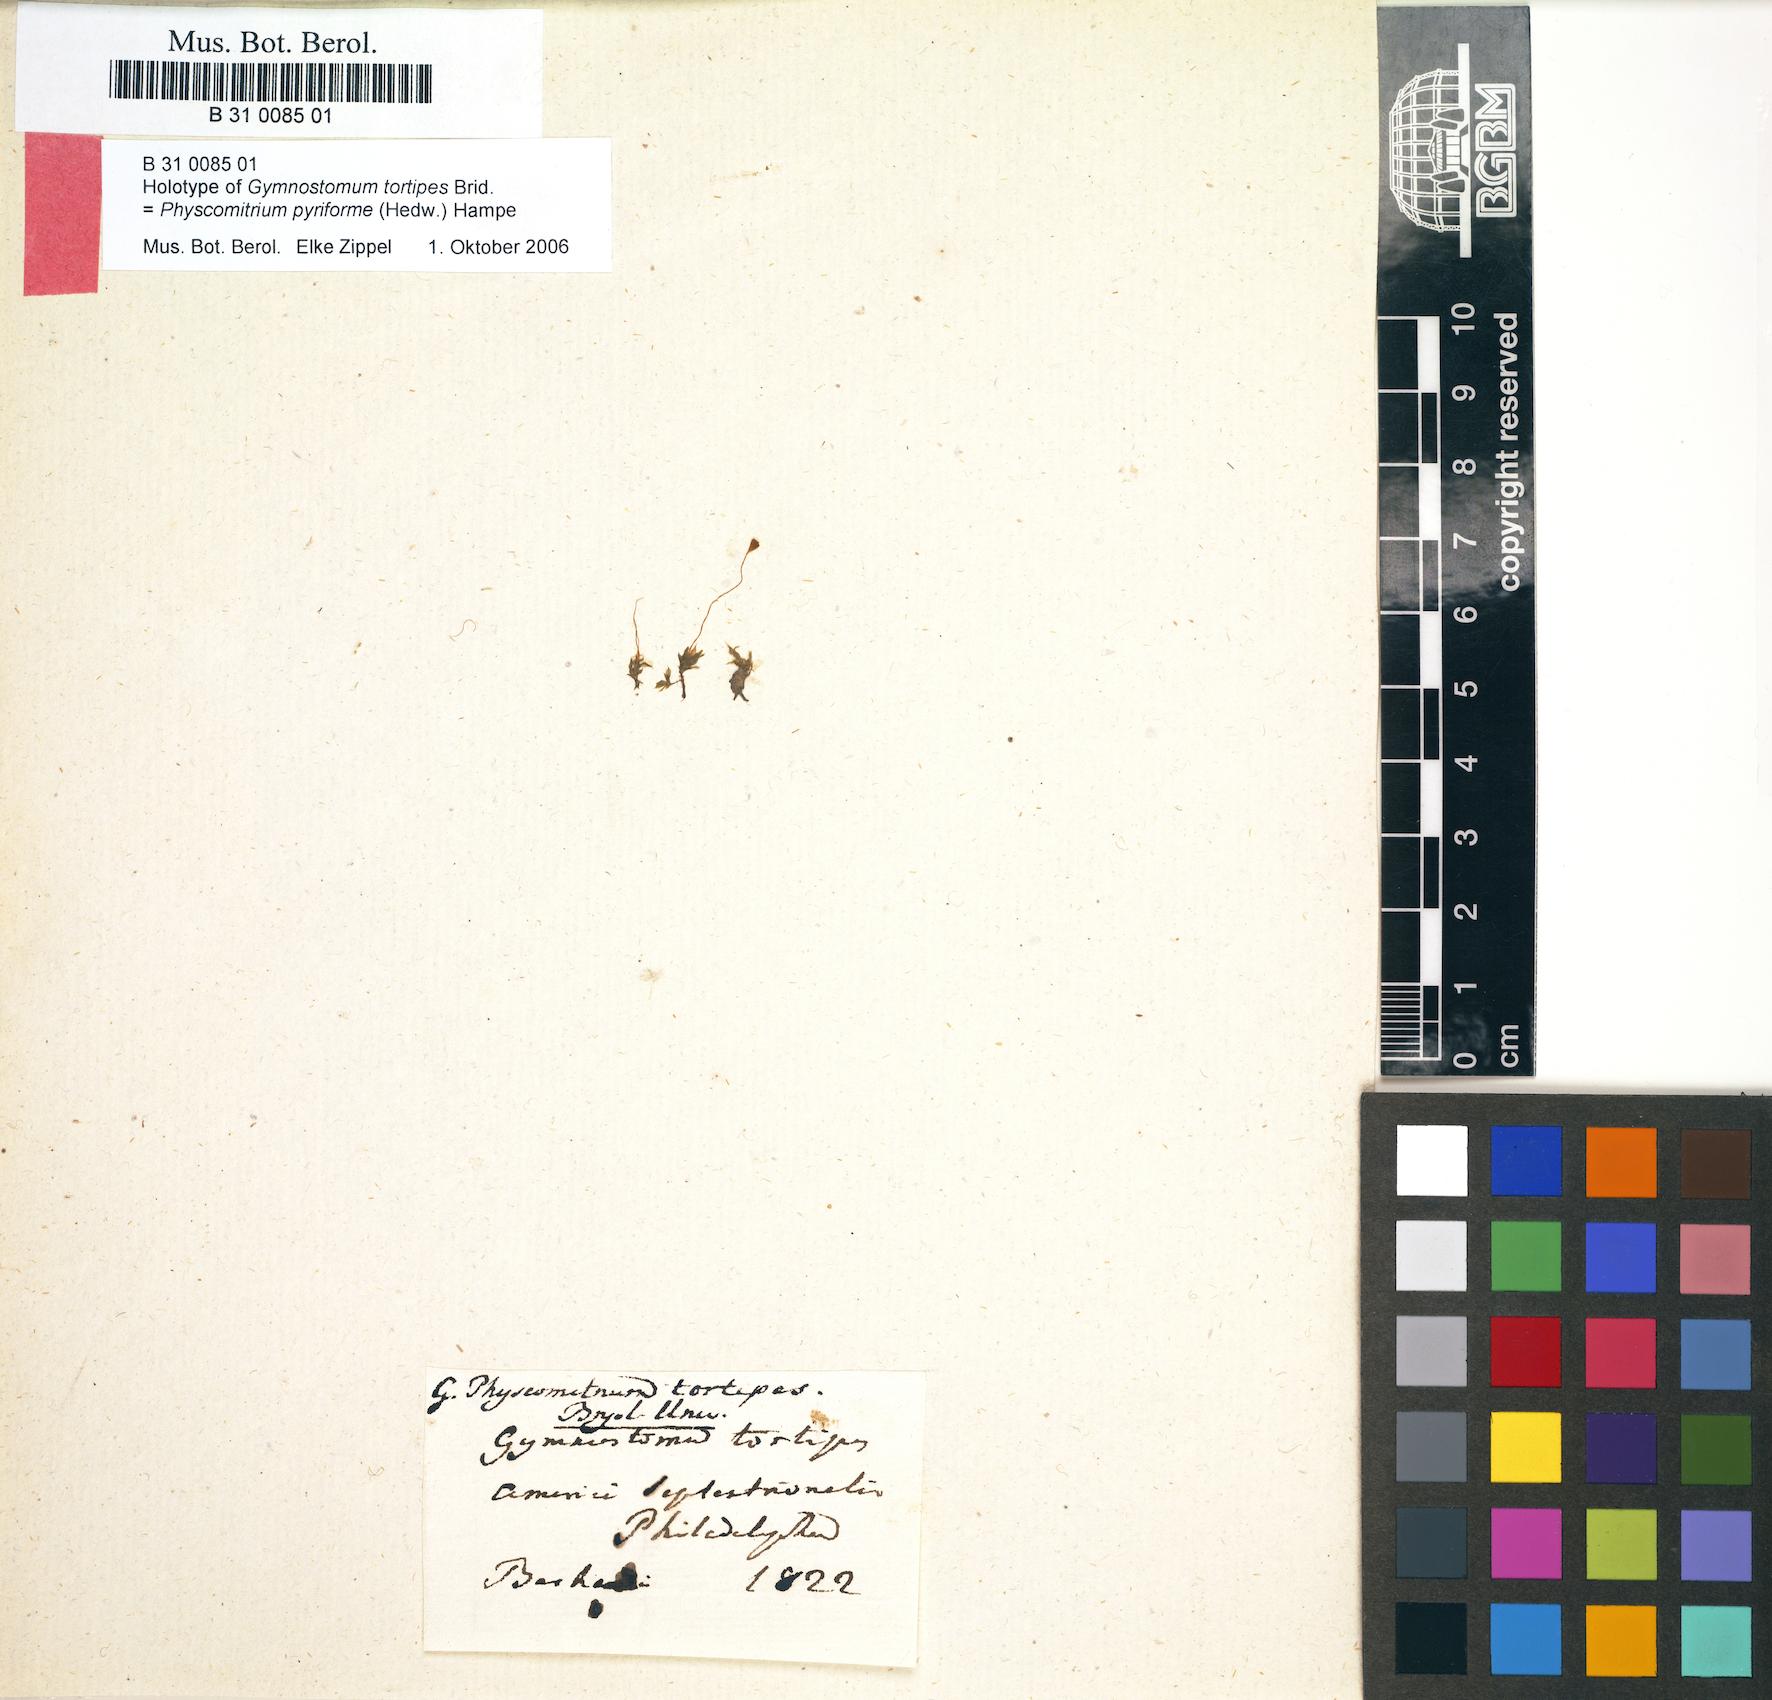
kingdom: Plantae
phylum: Bryophyta
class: Bryopsida
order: Funariales
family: Funariaceae
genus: Physcomitrium
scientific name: Physcomitrium pyriforme
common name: Common bladder-moss
